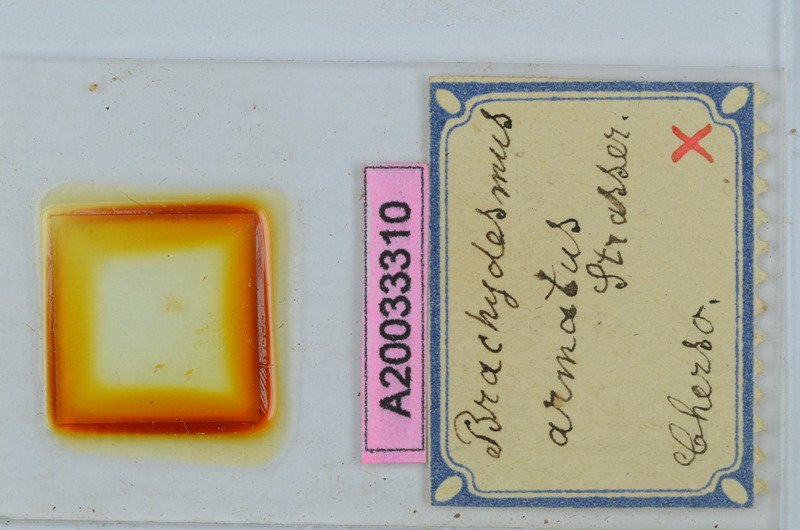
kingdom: Animalia
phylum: Arthropoda
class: Diplopoda
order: Polydesmida
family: Polydesmidae
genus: Brachydesmus
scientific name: Brachydesmus herzegowinensis
